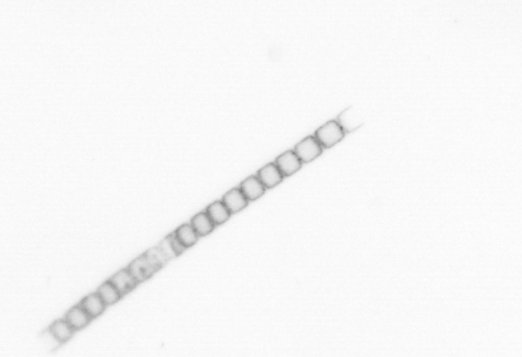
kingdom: Chromista
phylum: Ochrophyta
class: Bacillariophyceae
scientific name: Bacillariophyceae
